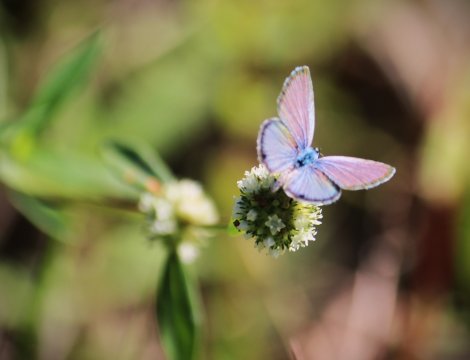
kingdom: Animalia
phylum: Arthropoda
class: Insecta
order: Lepidoptera
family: Lycaenidae
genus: Hemiargus
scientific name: Hemiargus ceraunus
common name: Ceraunus Blue
